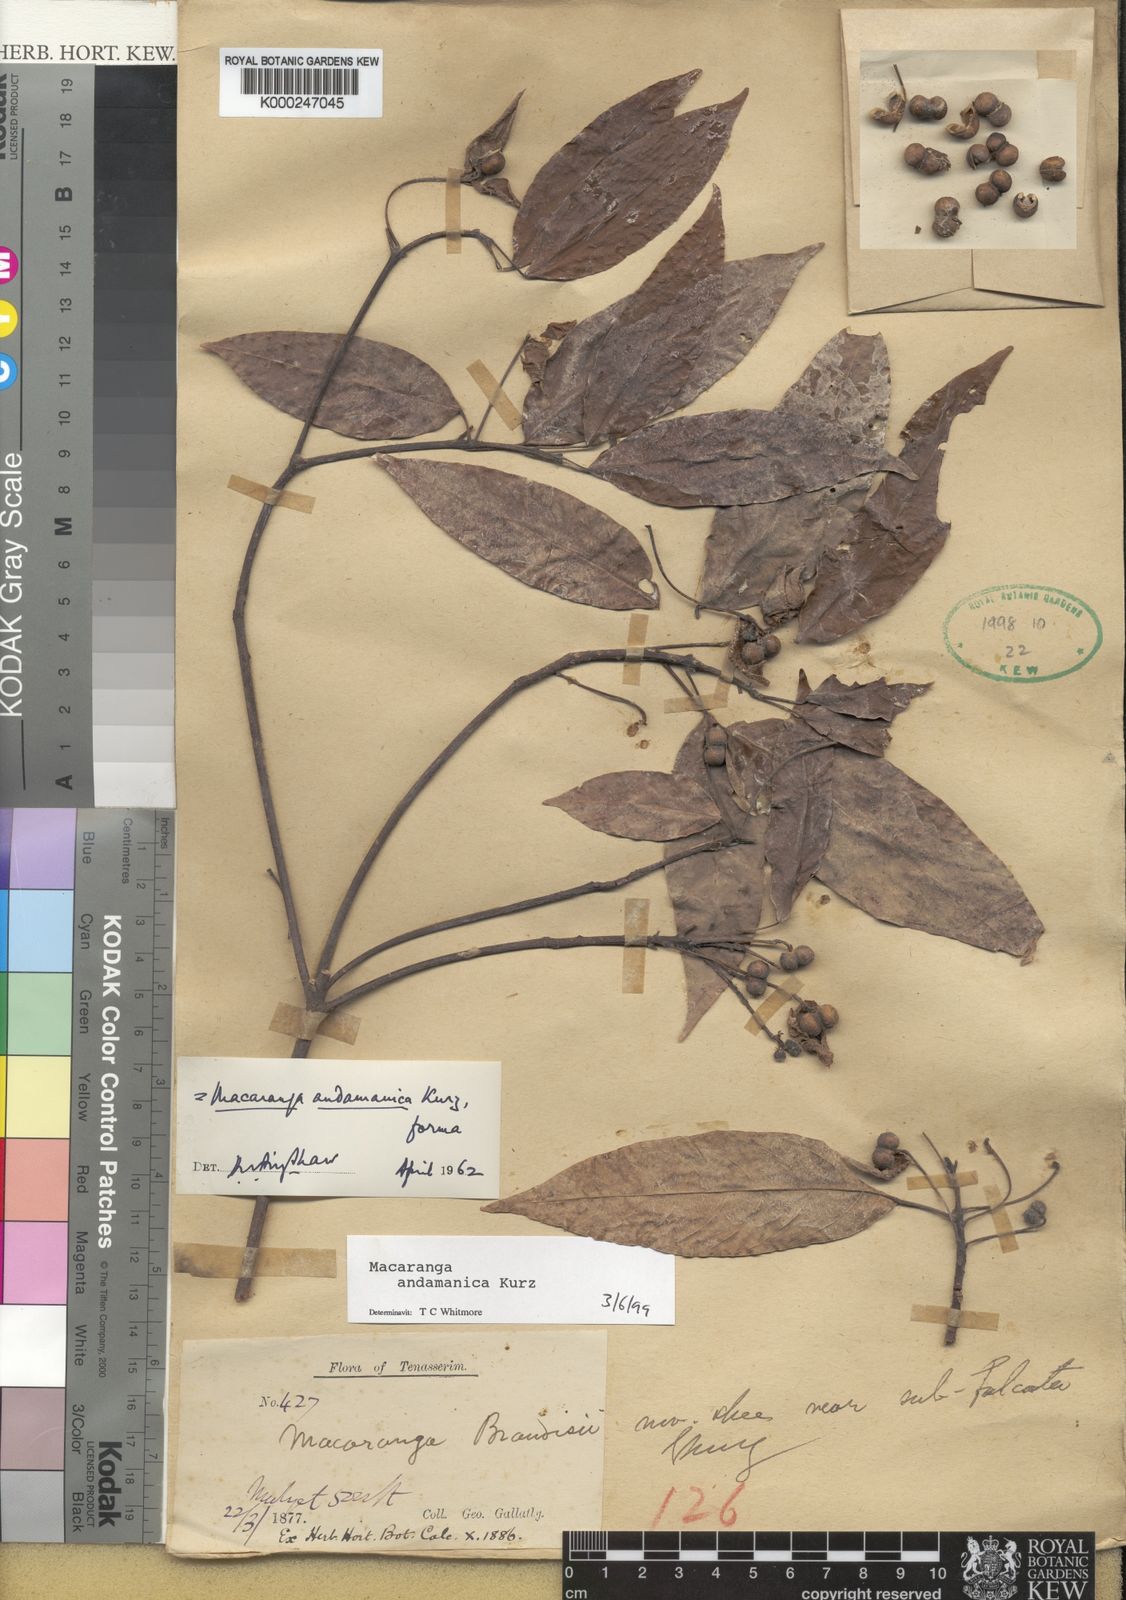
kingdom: Plantae
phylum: Tracheophyta
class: Magnoliopsida
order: Malpighiales
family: Euphorbiaceae
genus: Macaranga
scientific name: Macaranga andamanica
